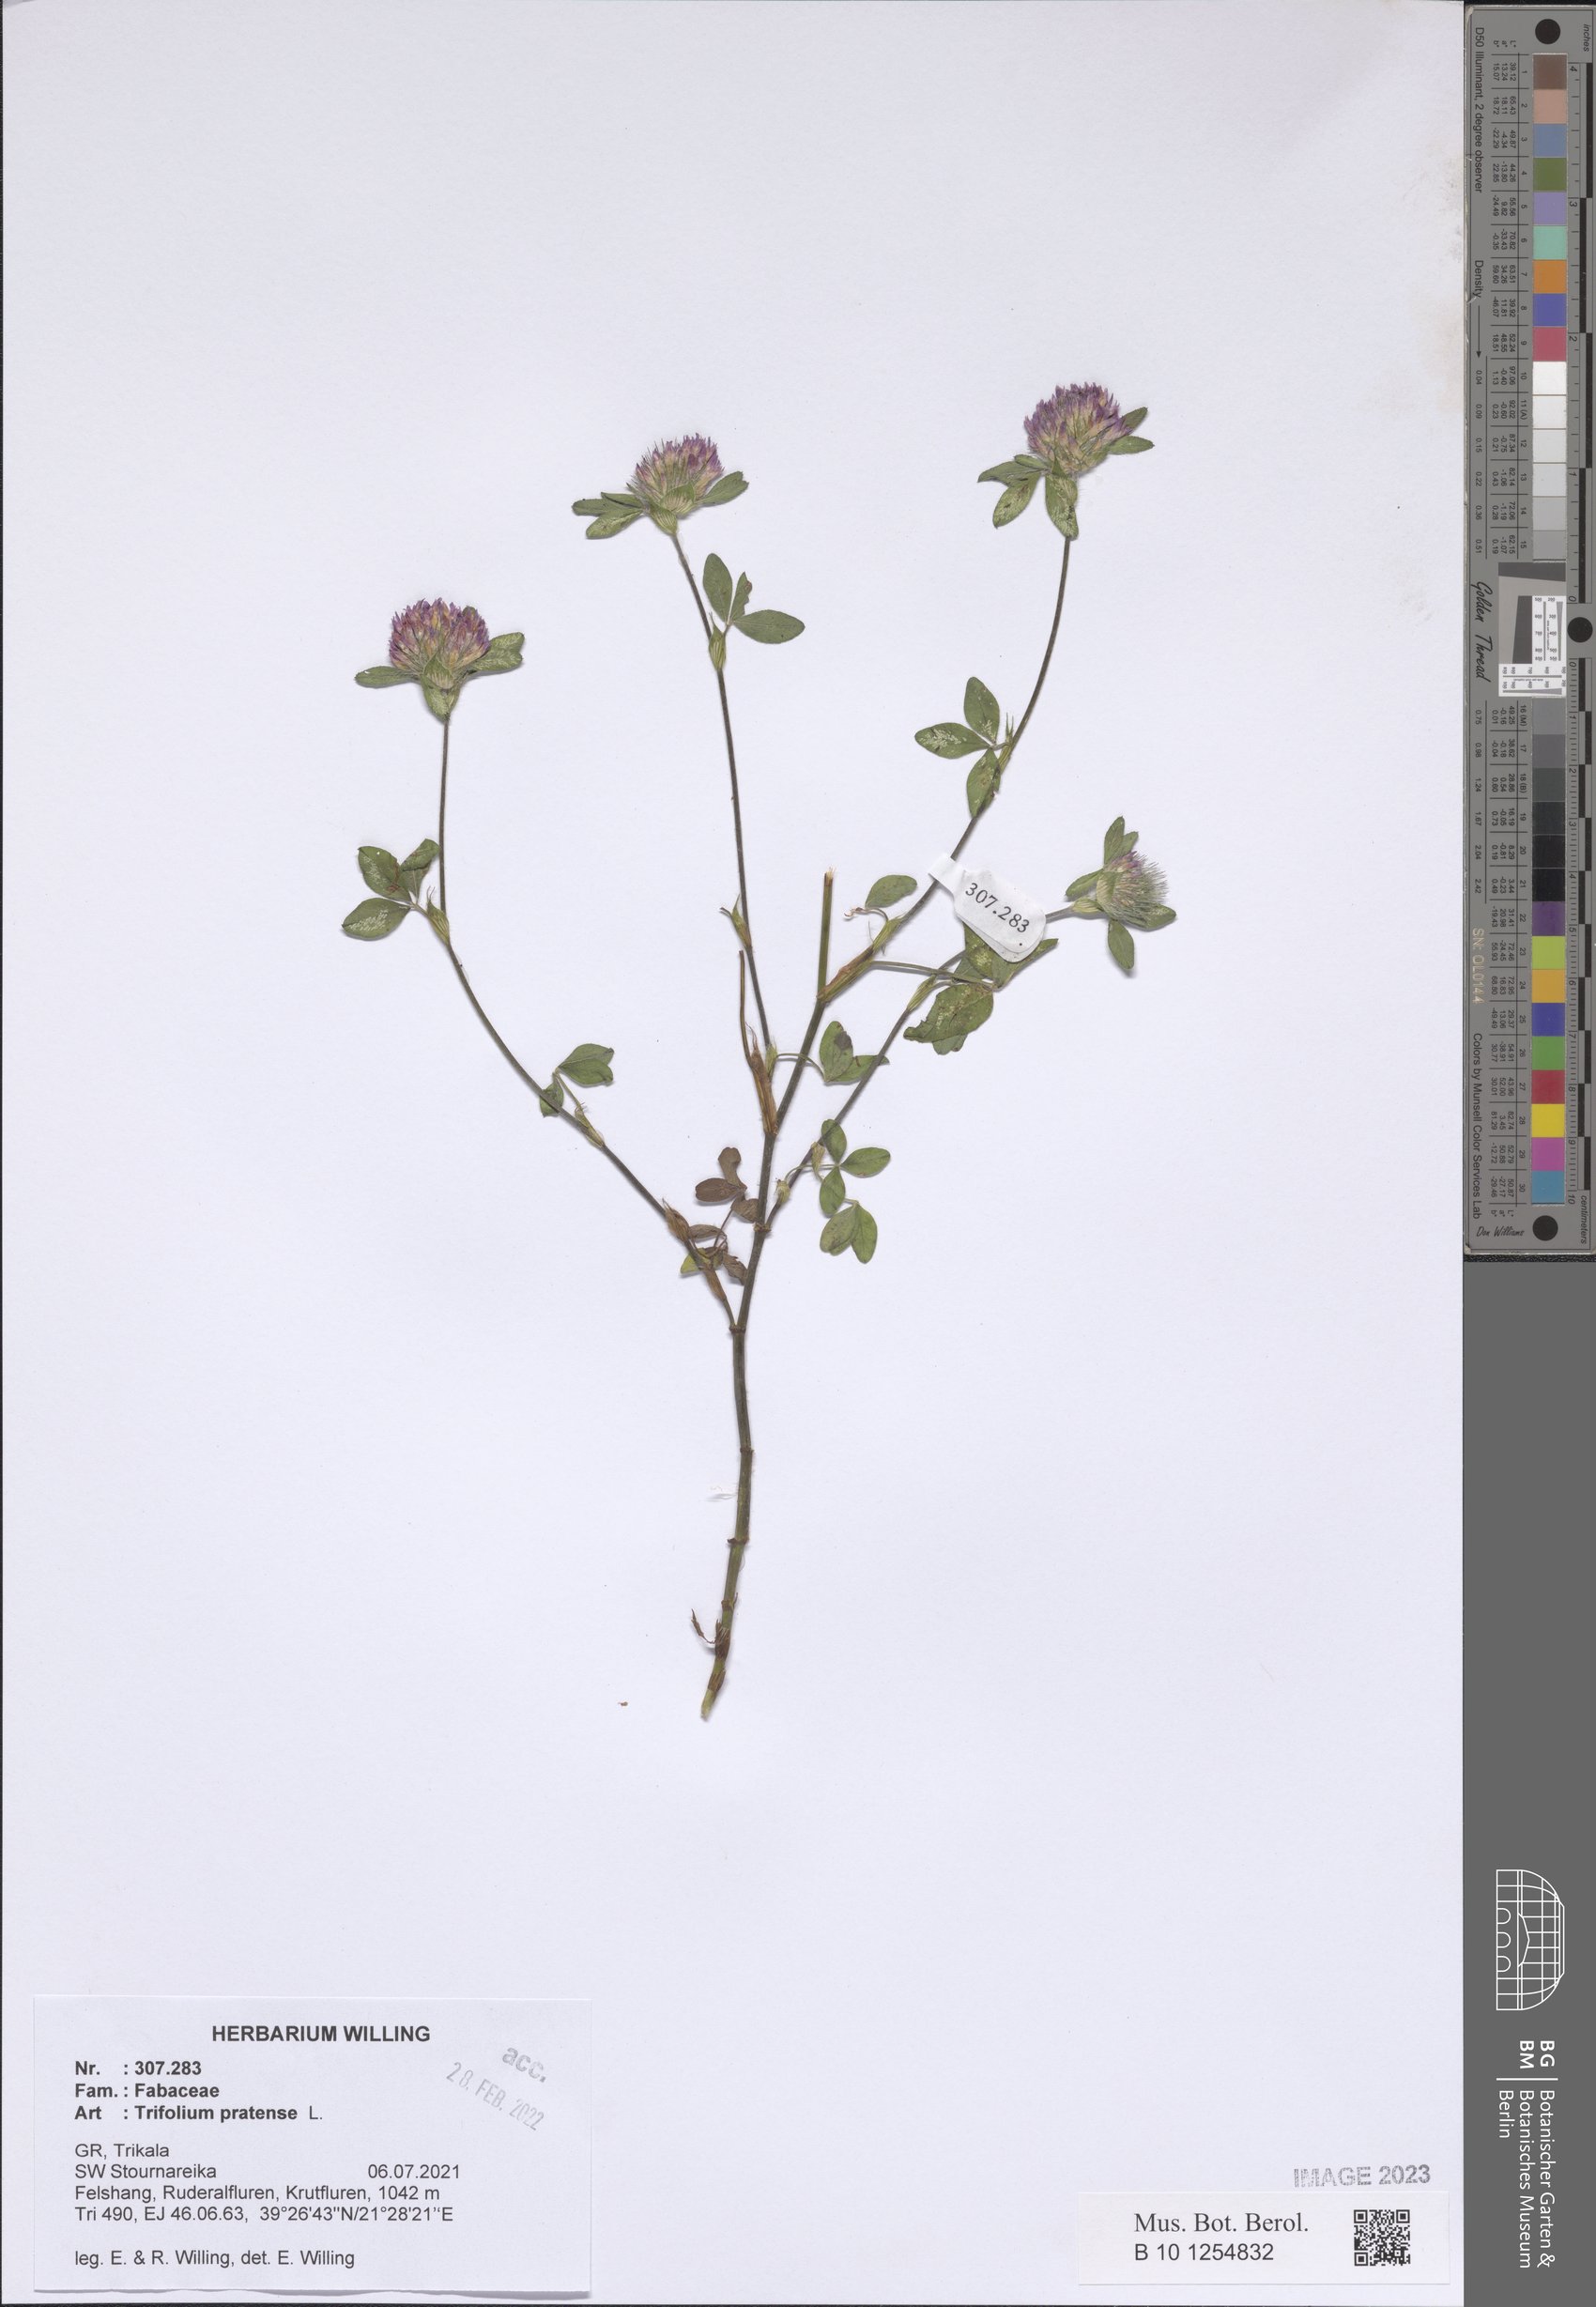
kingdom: Plantae
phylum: Tracheophyta
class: Magnoliopsida
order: Fabales
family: Fabaceae
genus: Trifolium
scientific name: Trifolium pratense
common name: Red clover
